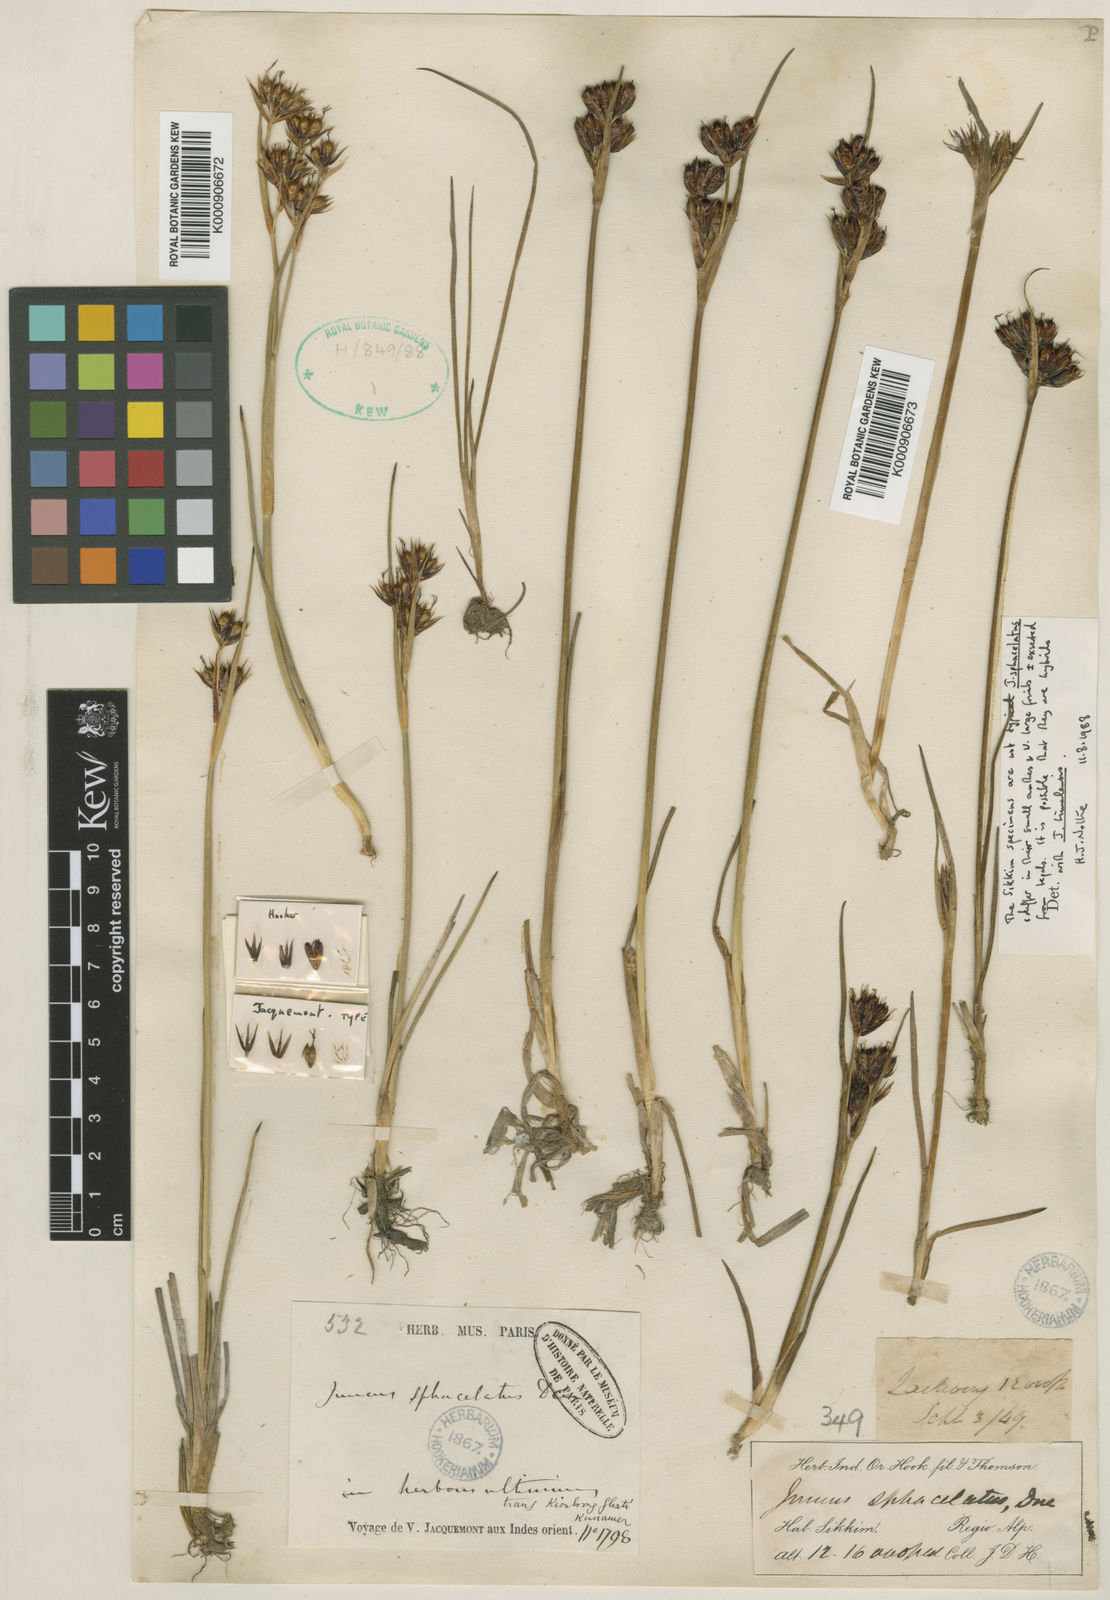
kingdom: Plantae
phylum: Tracheophyta
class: Liliopsida
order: Poales
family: Juncaceae
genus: Juncus
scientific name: Juncus sphacelatus
